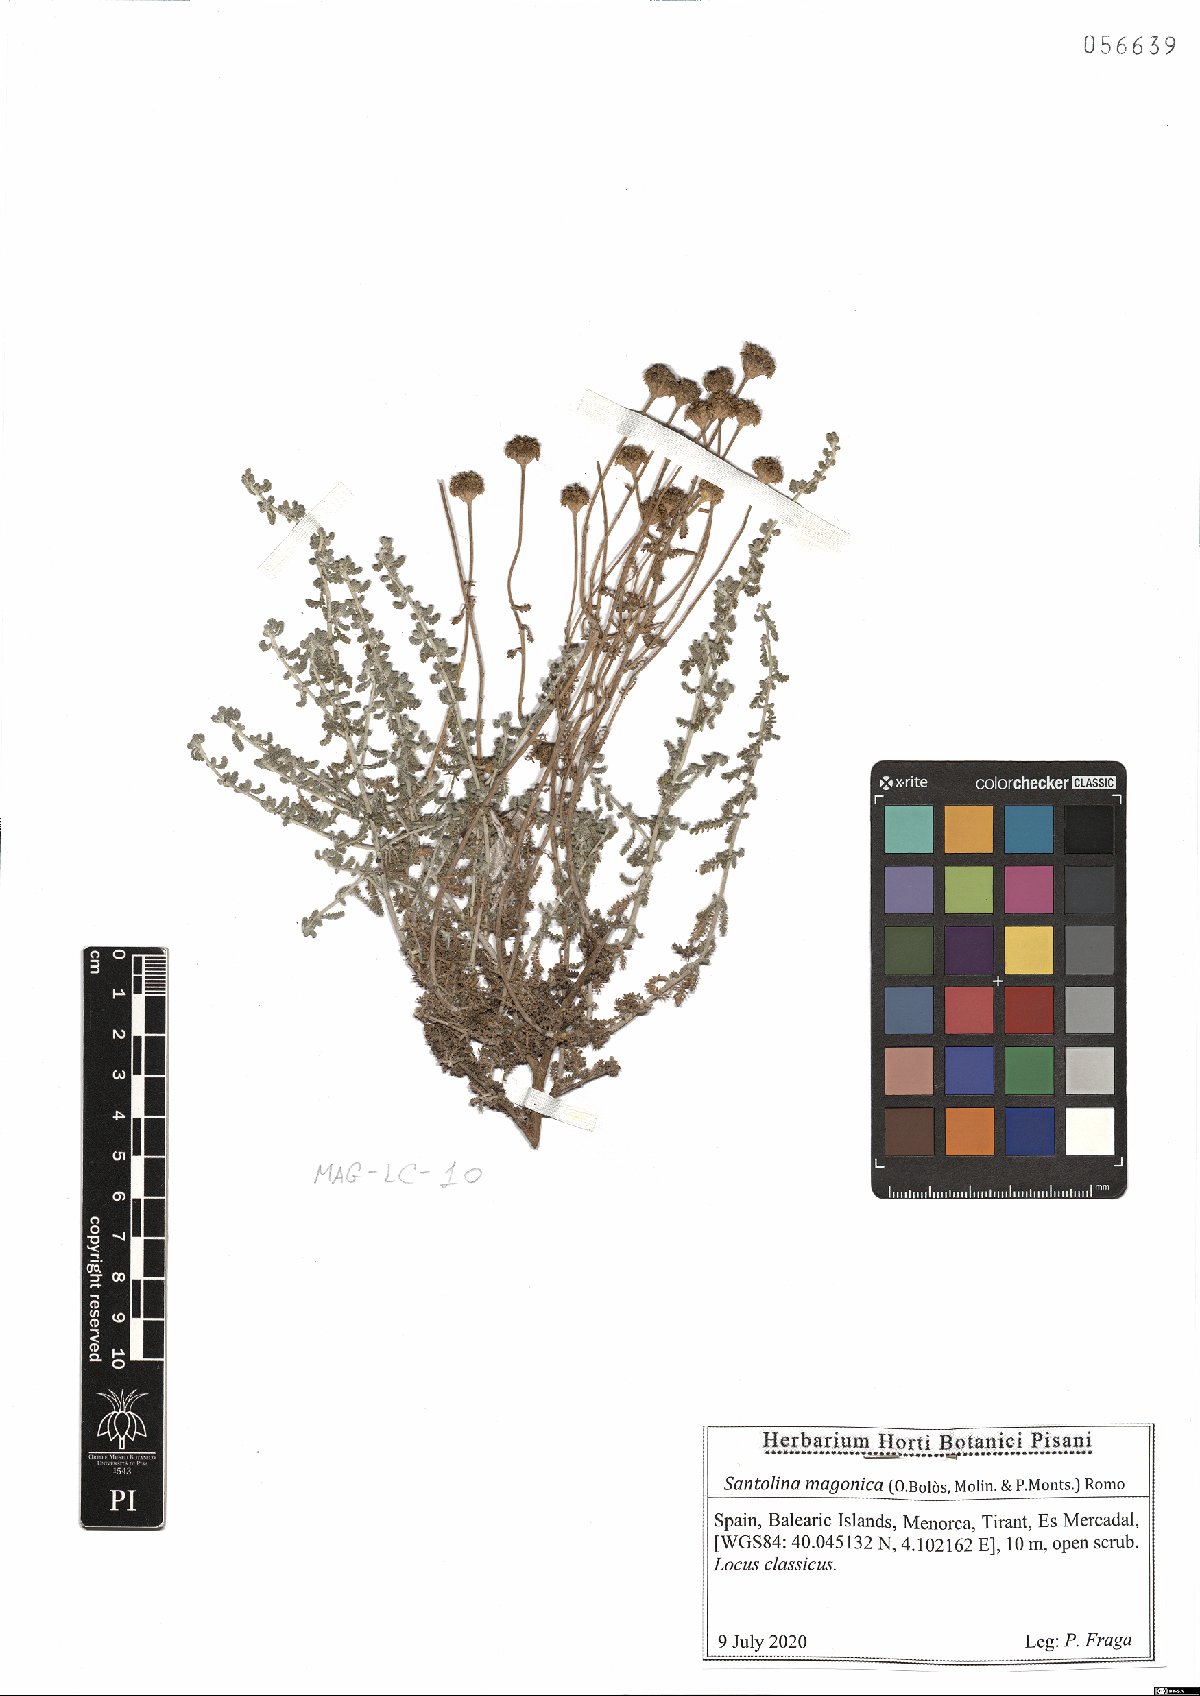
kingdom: Plantae
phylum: Tracheophyta
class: Magnoliopsida
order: Asterales
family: Asteraceae
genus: Santolina
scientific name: Santolina magonica
